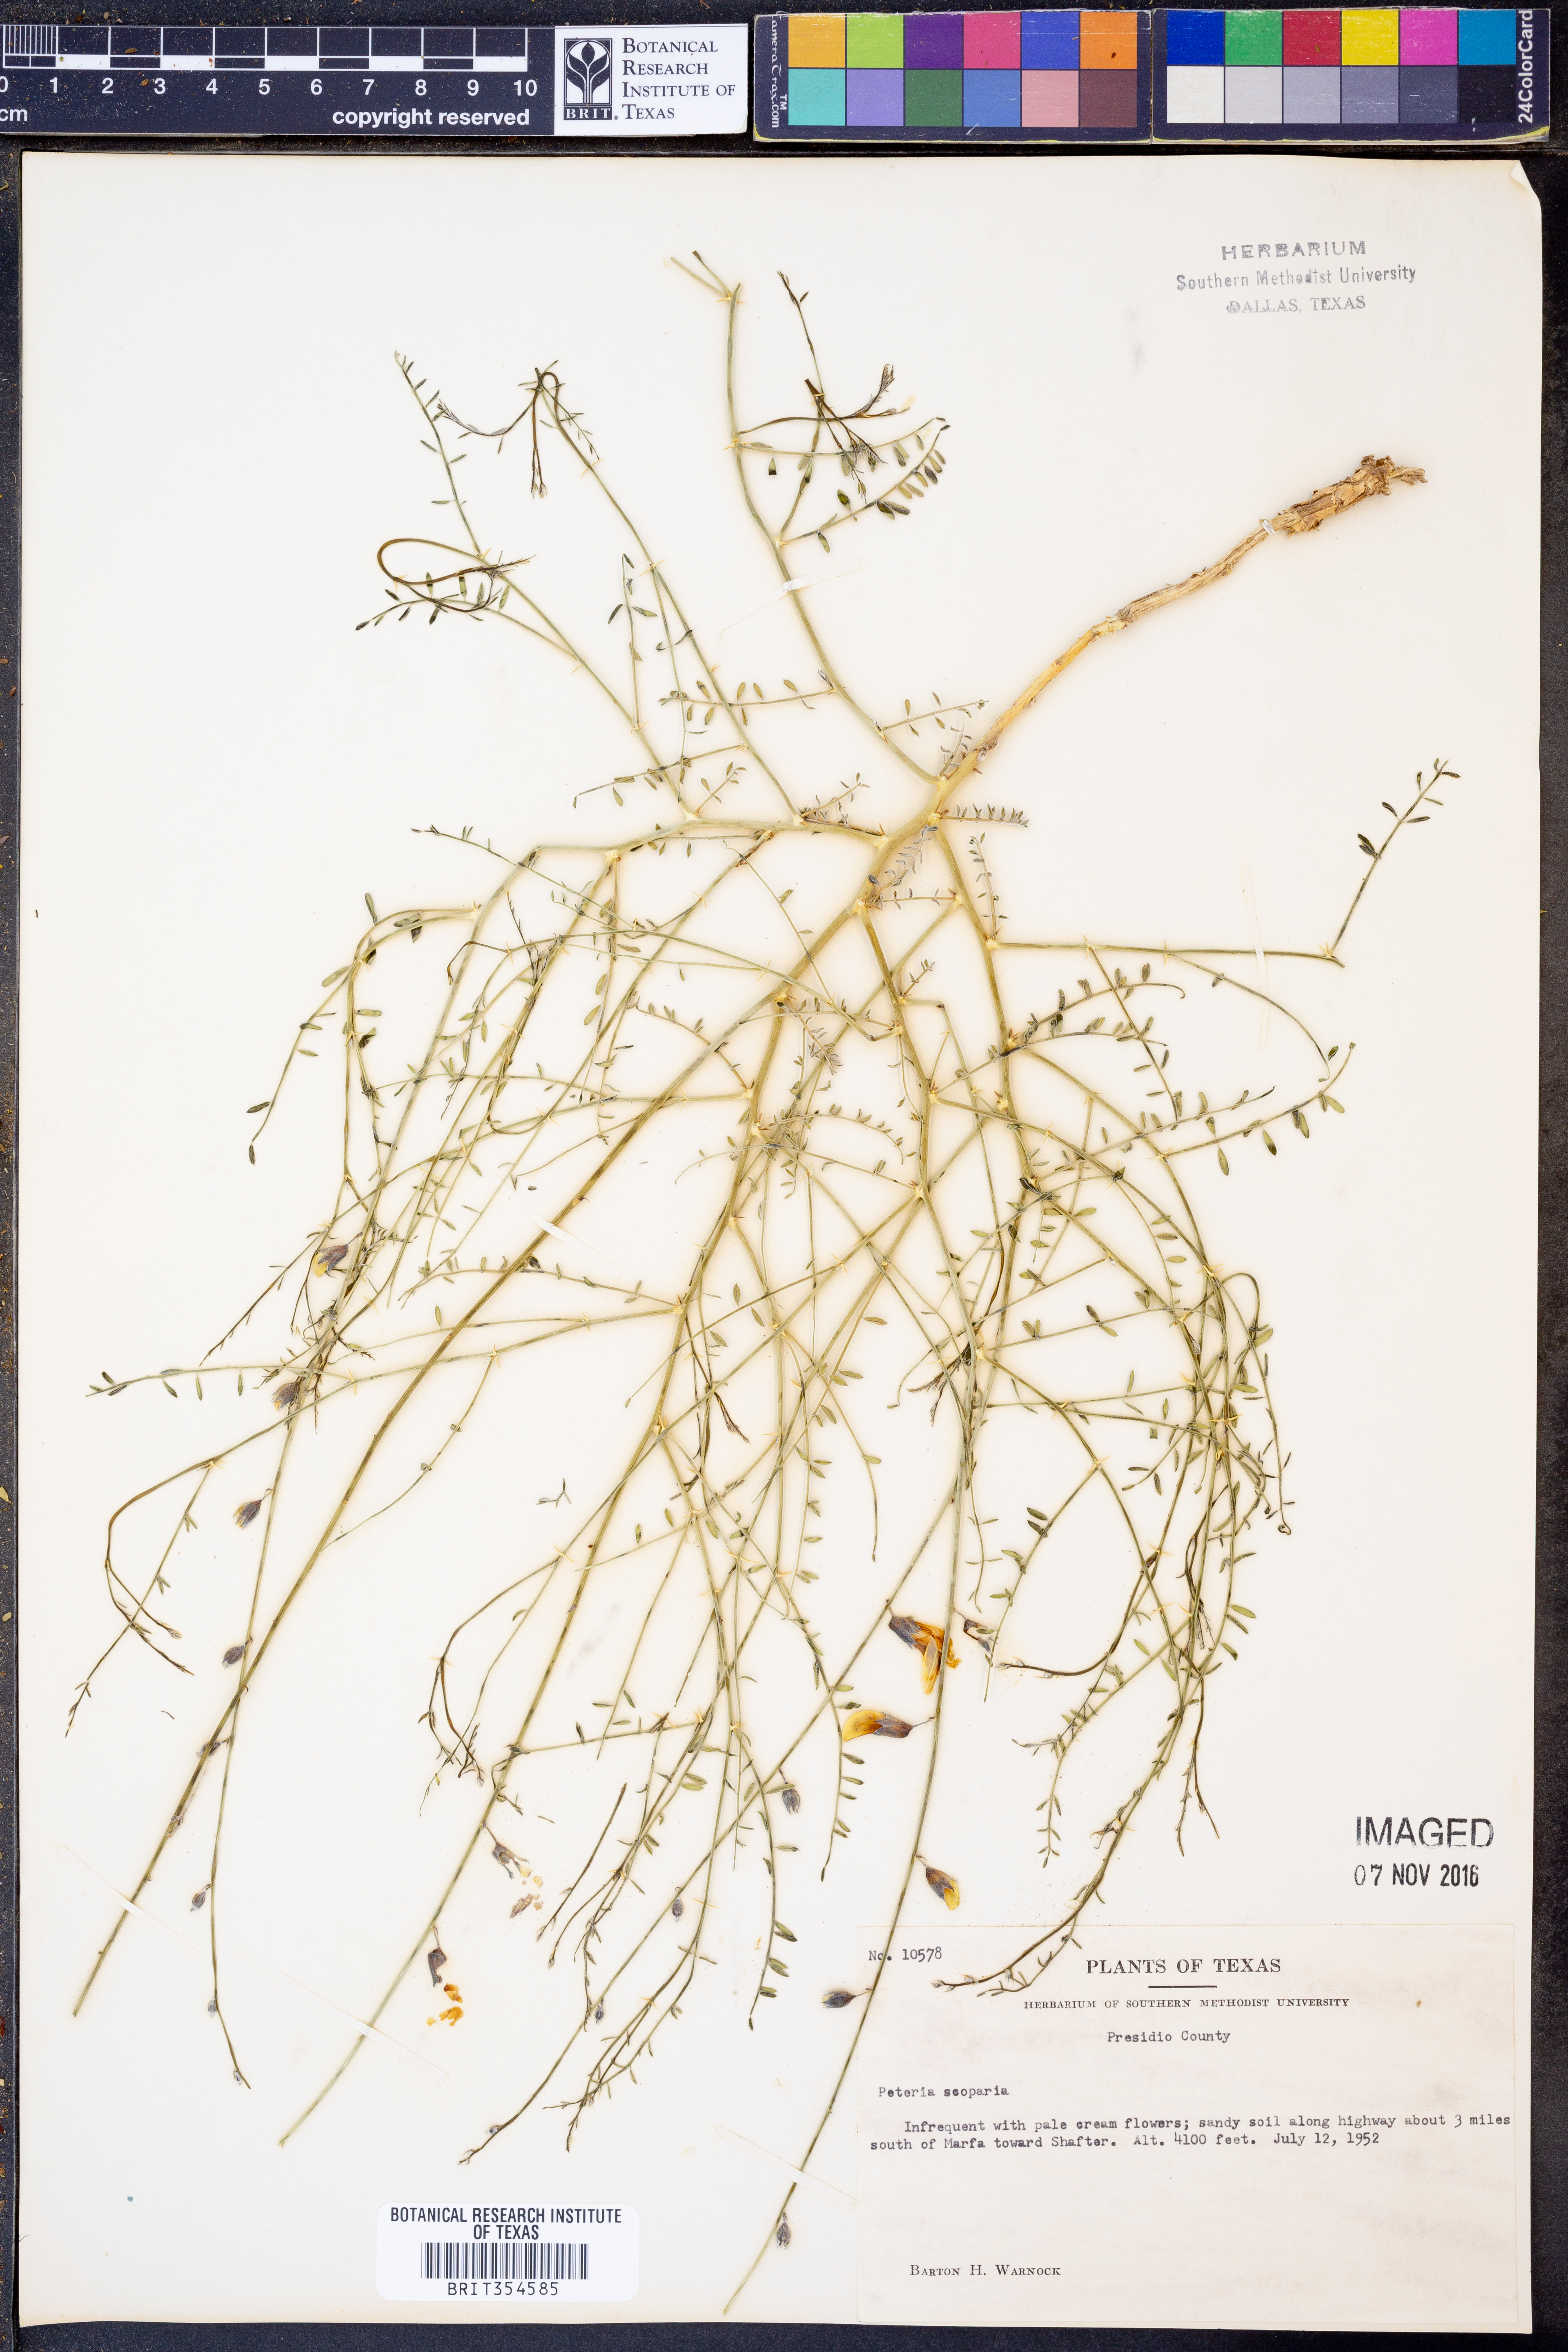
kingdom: Plantae
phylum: Tracheophyta
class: Magnoliopsida
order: Fabales
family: Fabaceae
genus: Peteria
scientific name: Peteria scoparia
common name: Camote del monte
